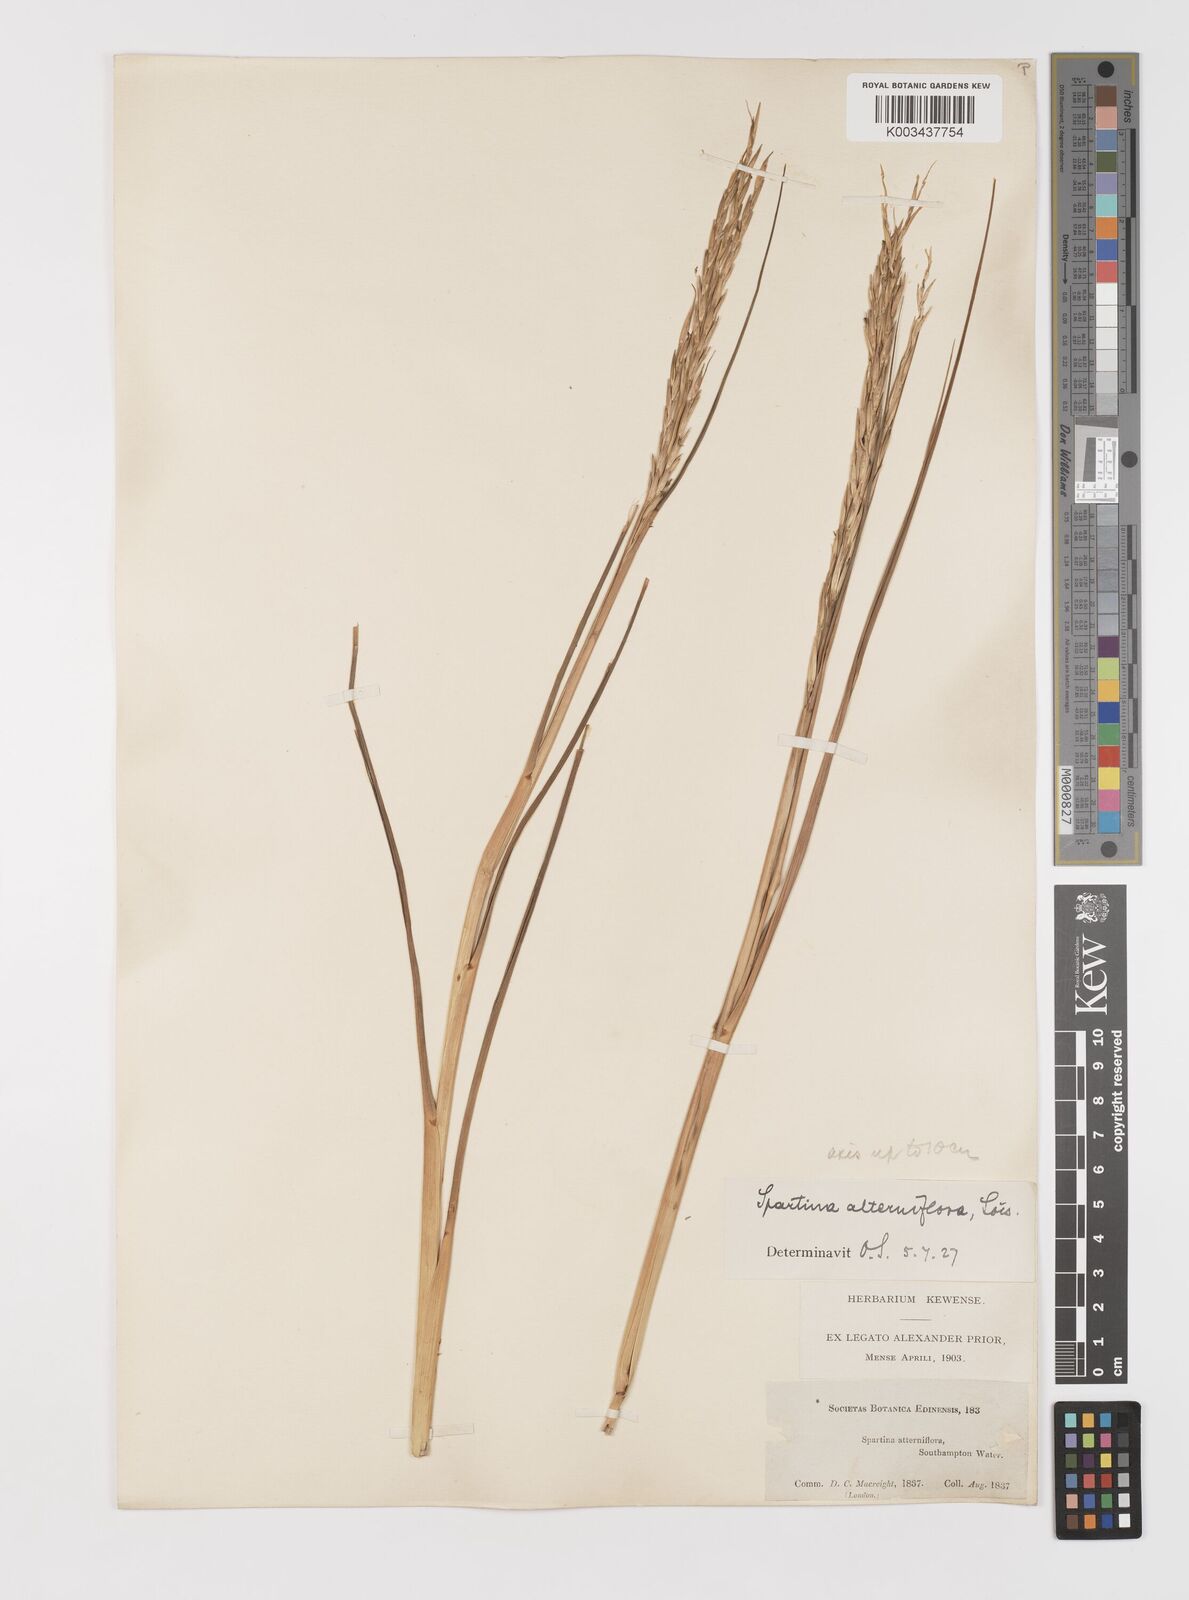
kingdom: Plantae
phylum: Tracheophyta
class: Liliopsida
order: Poales
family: Poaceae
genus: Sporobolus
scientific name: Sporobolus alterniflorus
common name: Atlantic cordgrass
